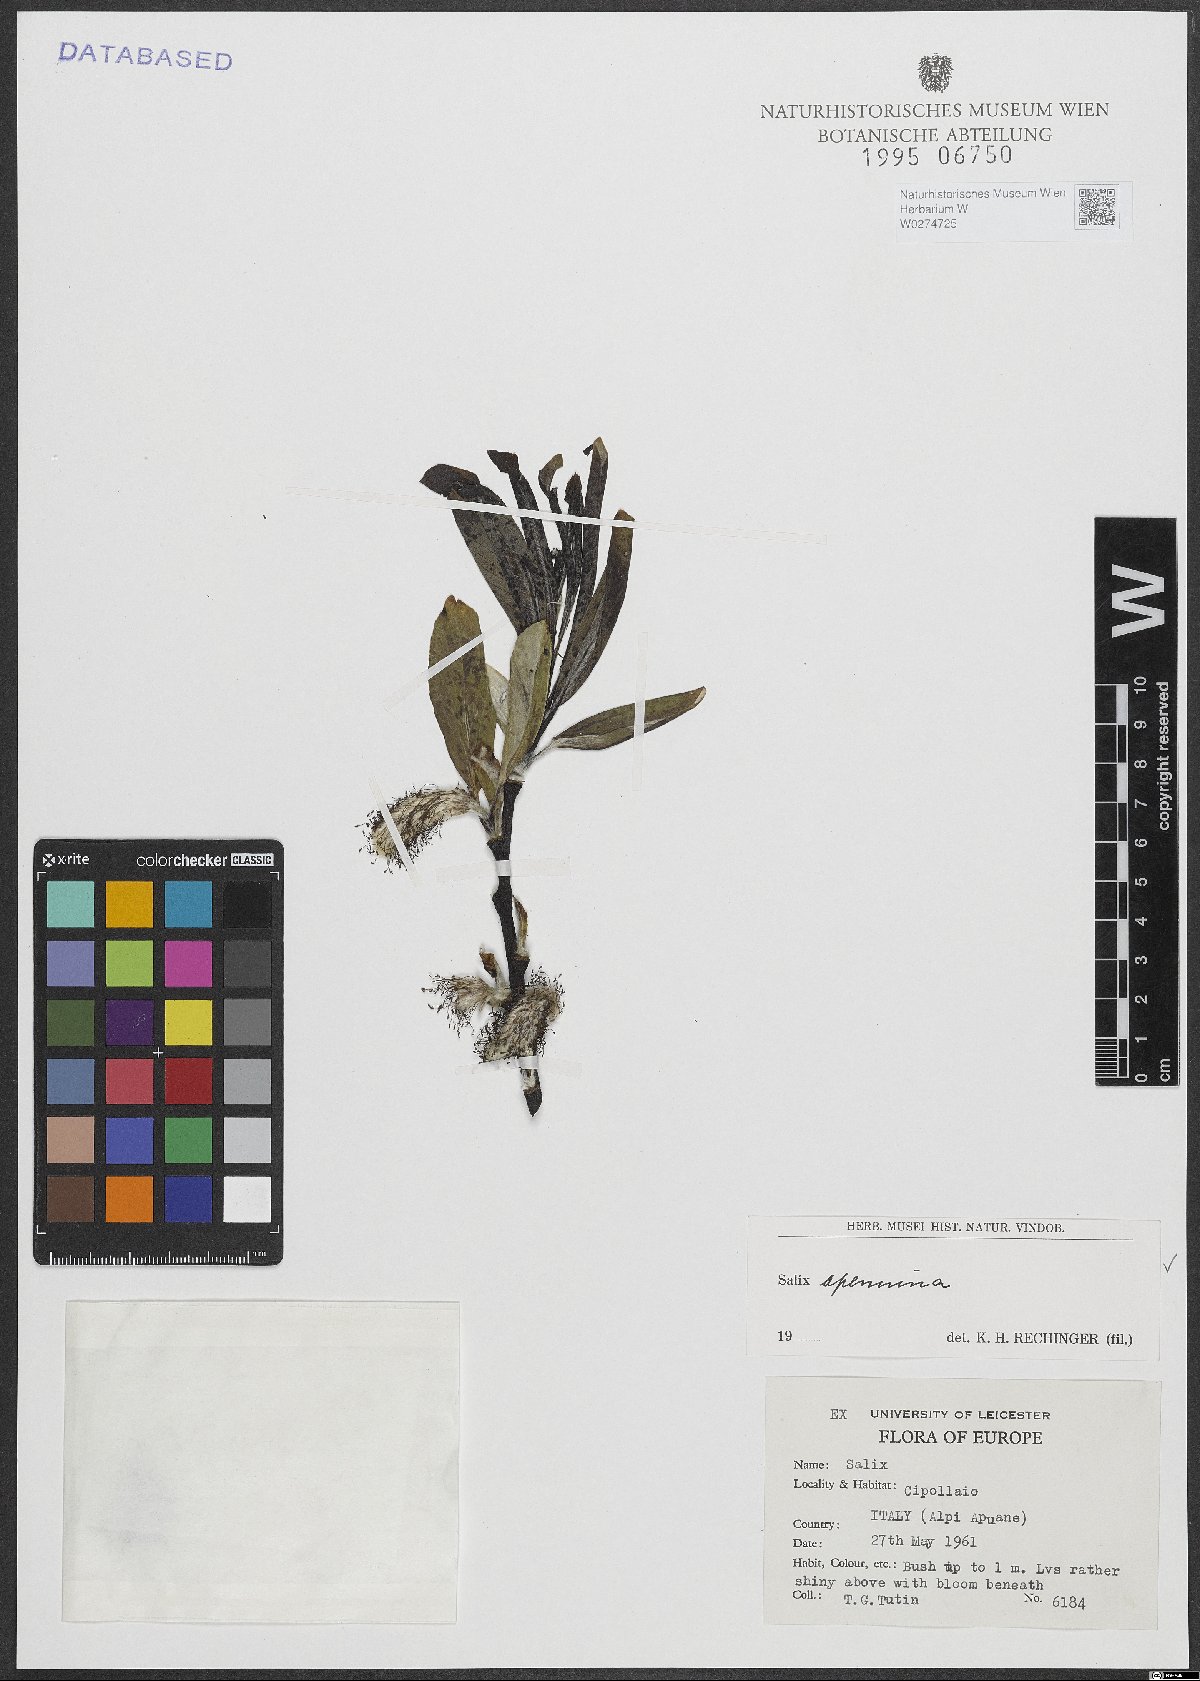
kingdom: Plantae
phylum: Tracheophyta
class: Magnoliopsida
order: Malpighiales
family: Salicaceae
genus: Salix
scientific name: Salix apennina
